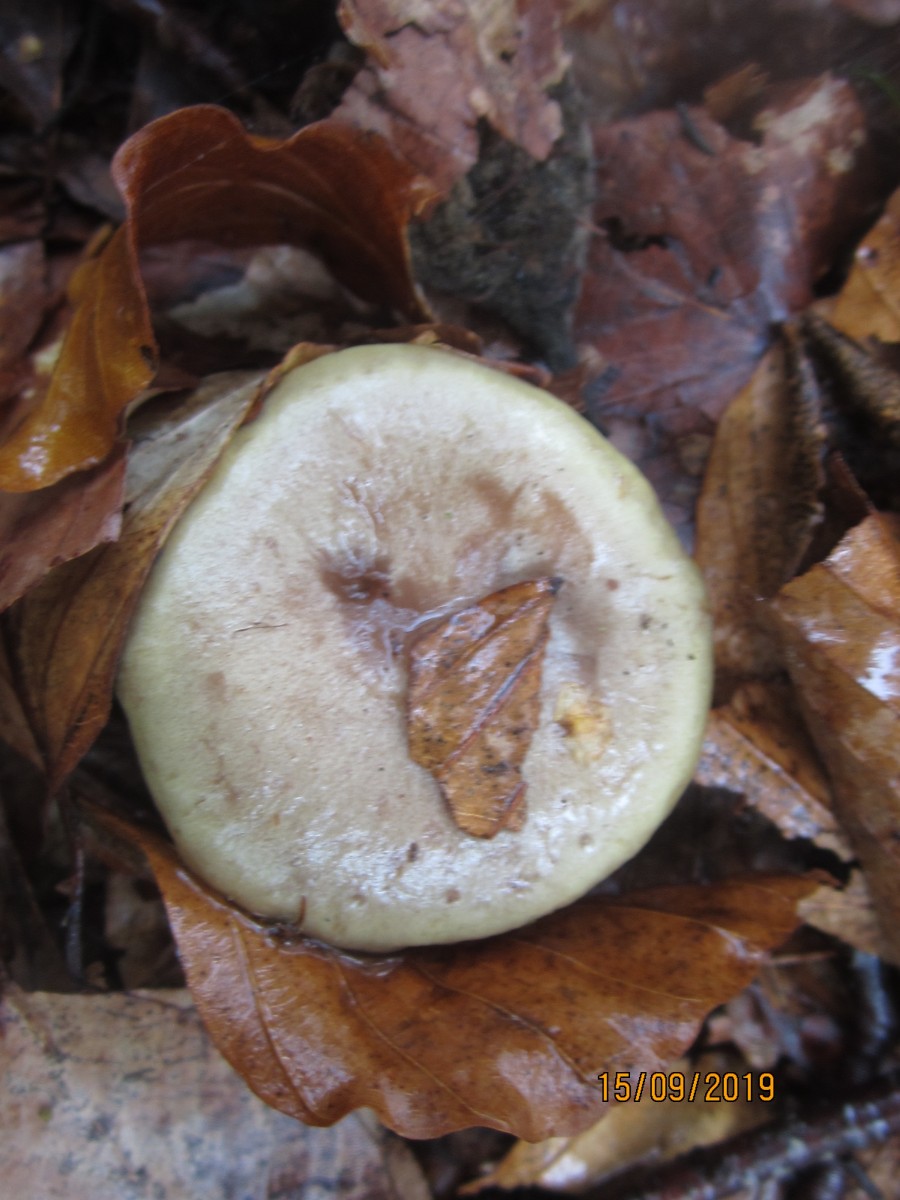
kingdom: Fungi
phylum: Basidiomycota
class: Agaricomycetes
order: Russulales
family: Russulaceae
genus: Lactarius
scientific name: Lactarius blennius
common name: dråbeplettet mælkehat
